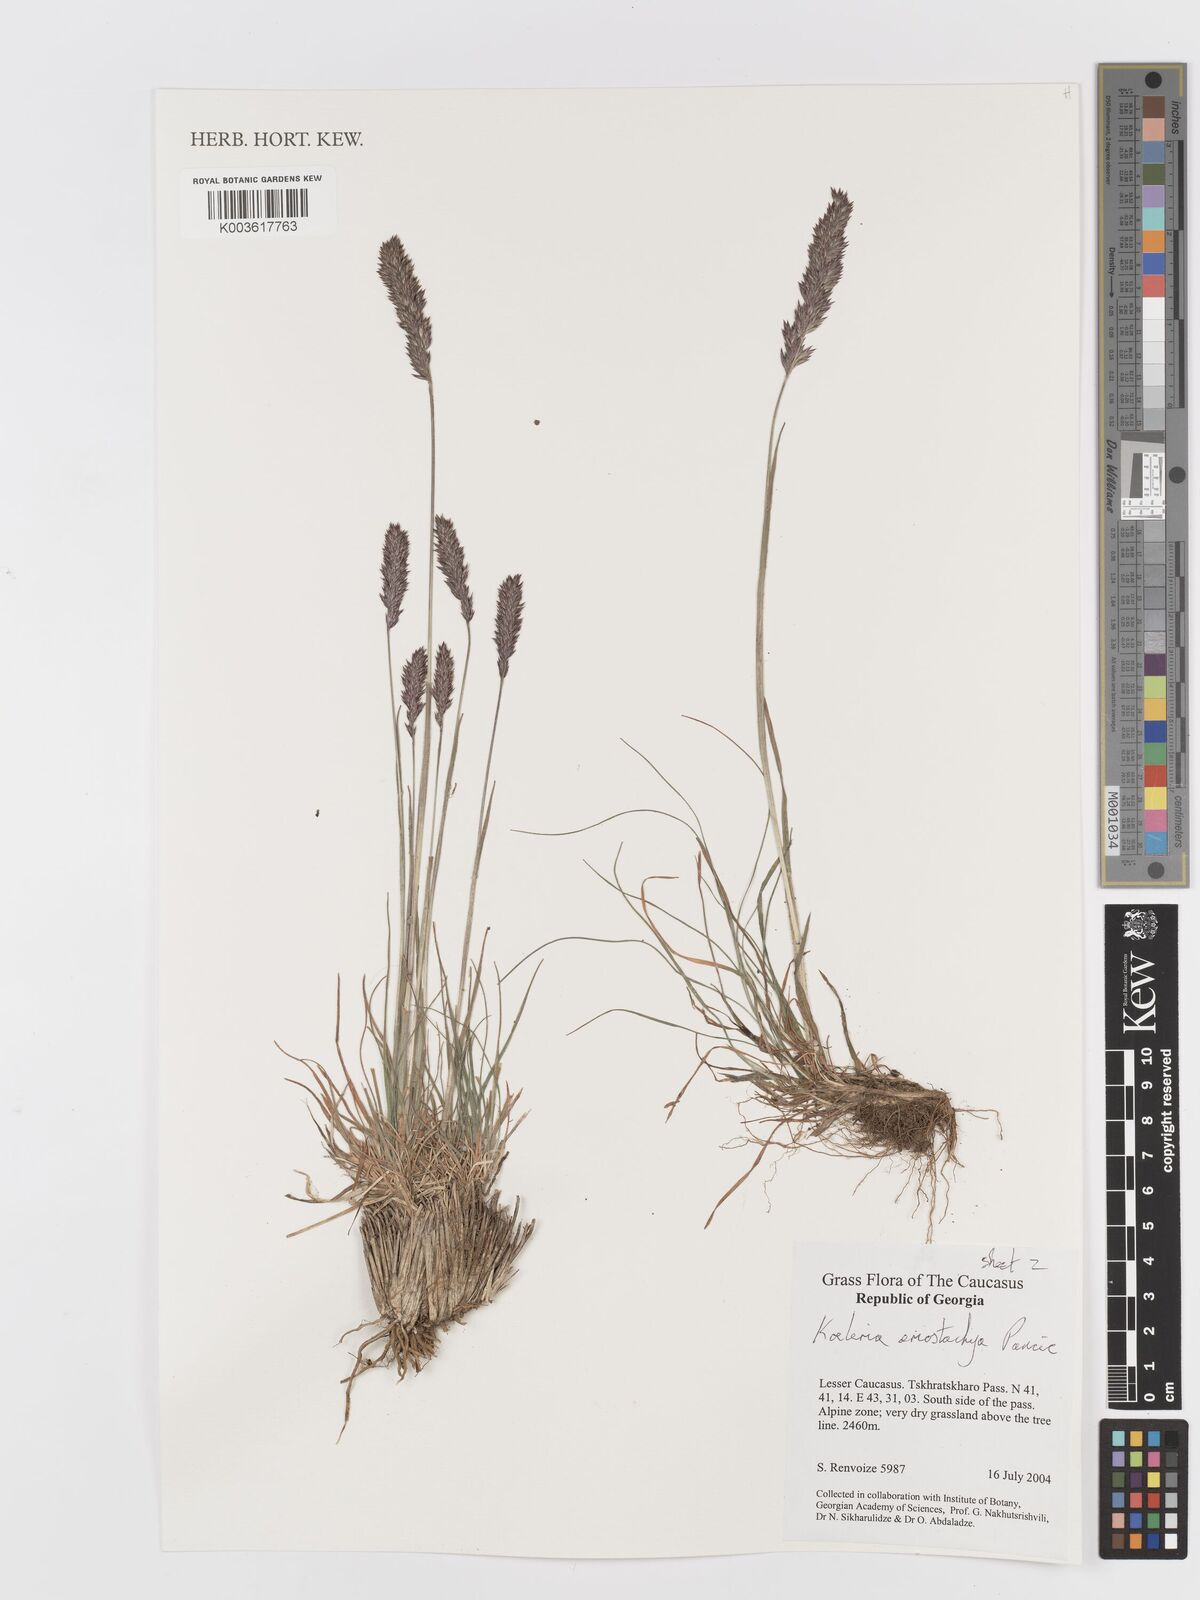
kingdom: Plantae
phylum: Tracheophyta
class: Liliopsida
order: Poales
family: Poaceae
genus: Koeleria
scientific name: Koeleria eriostachya
